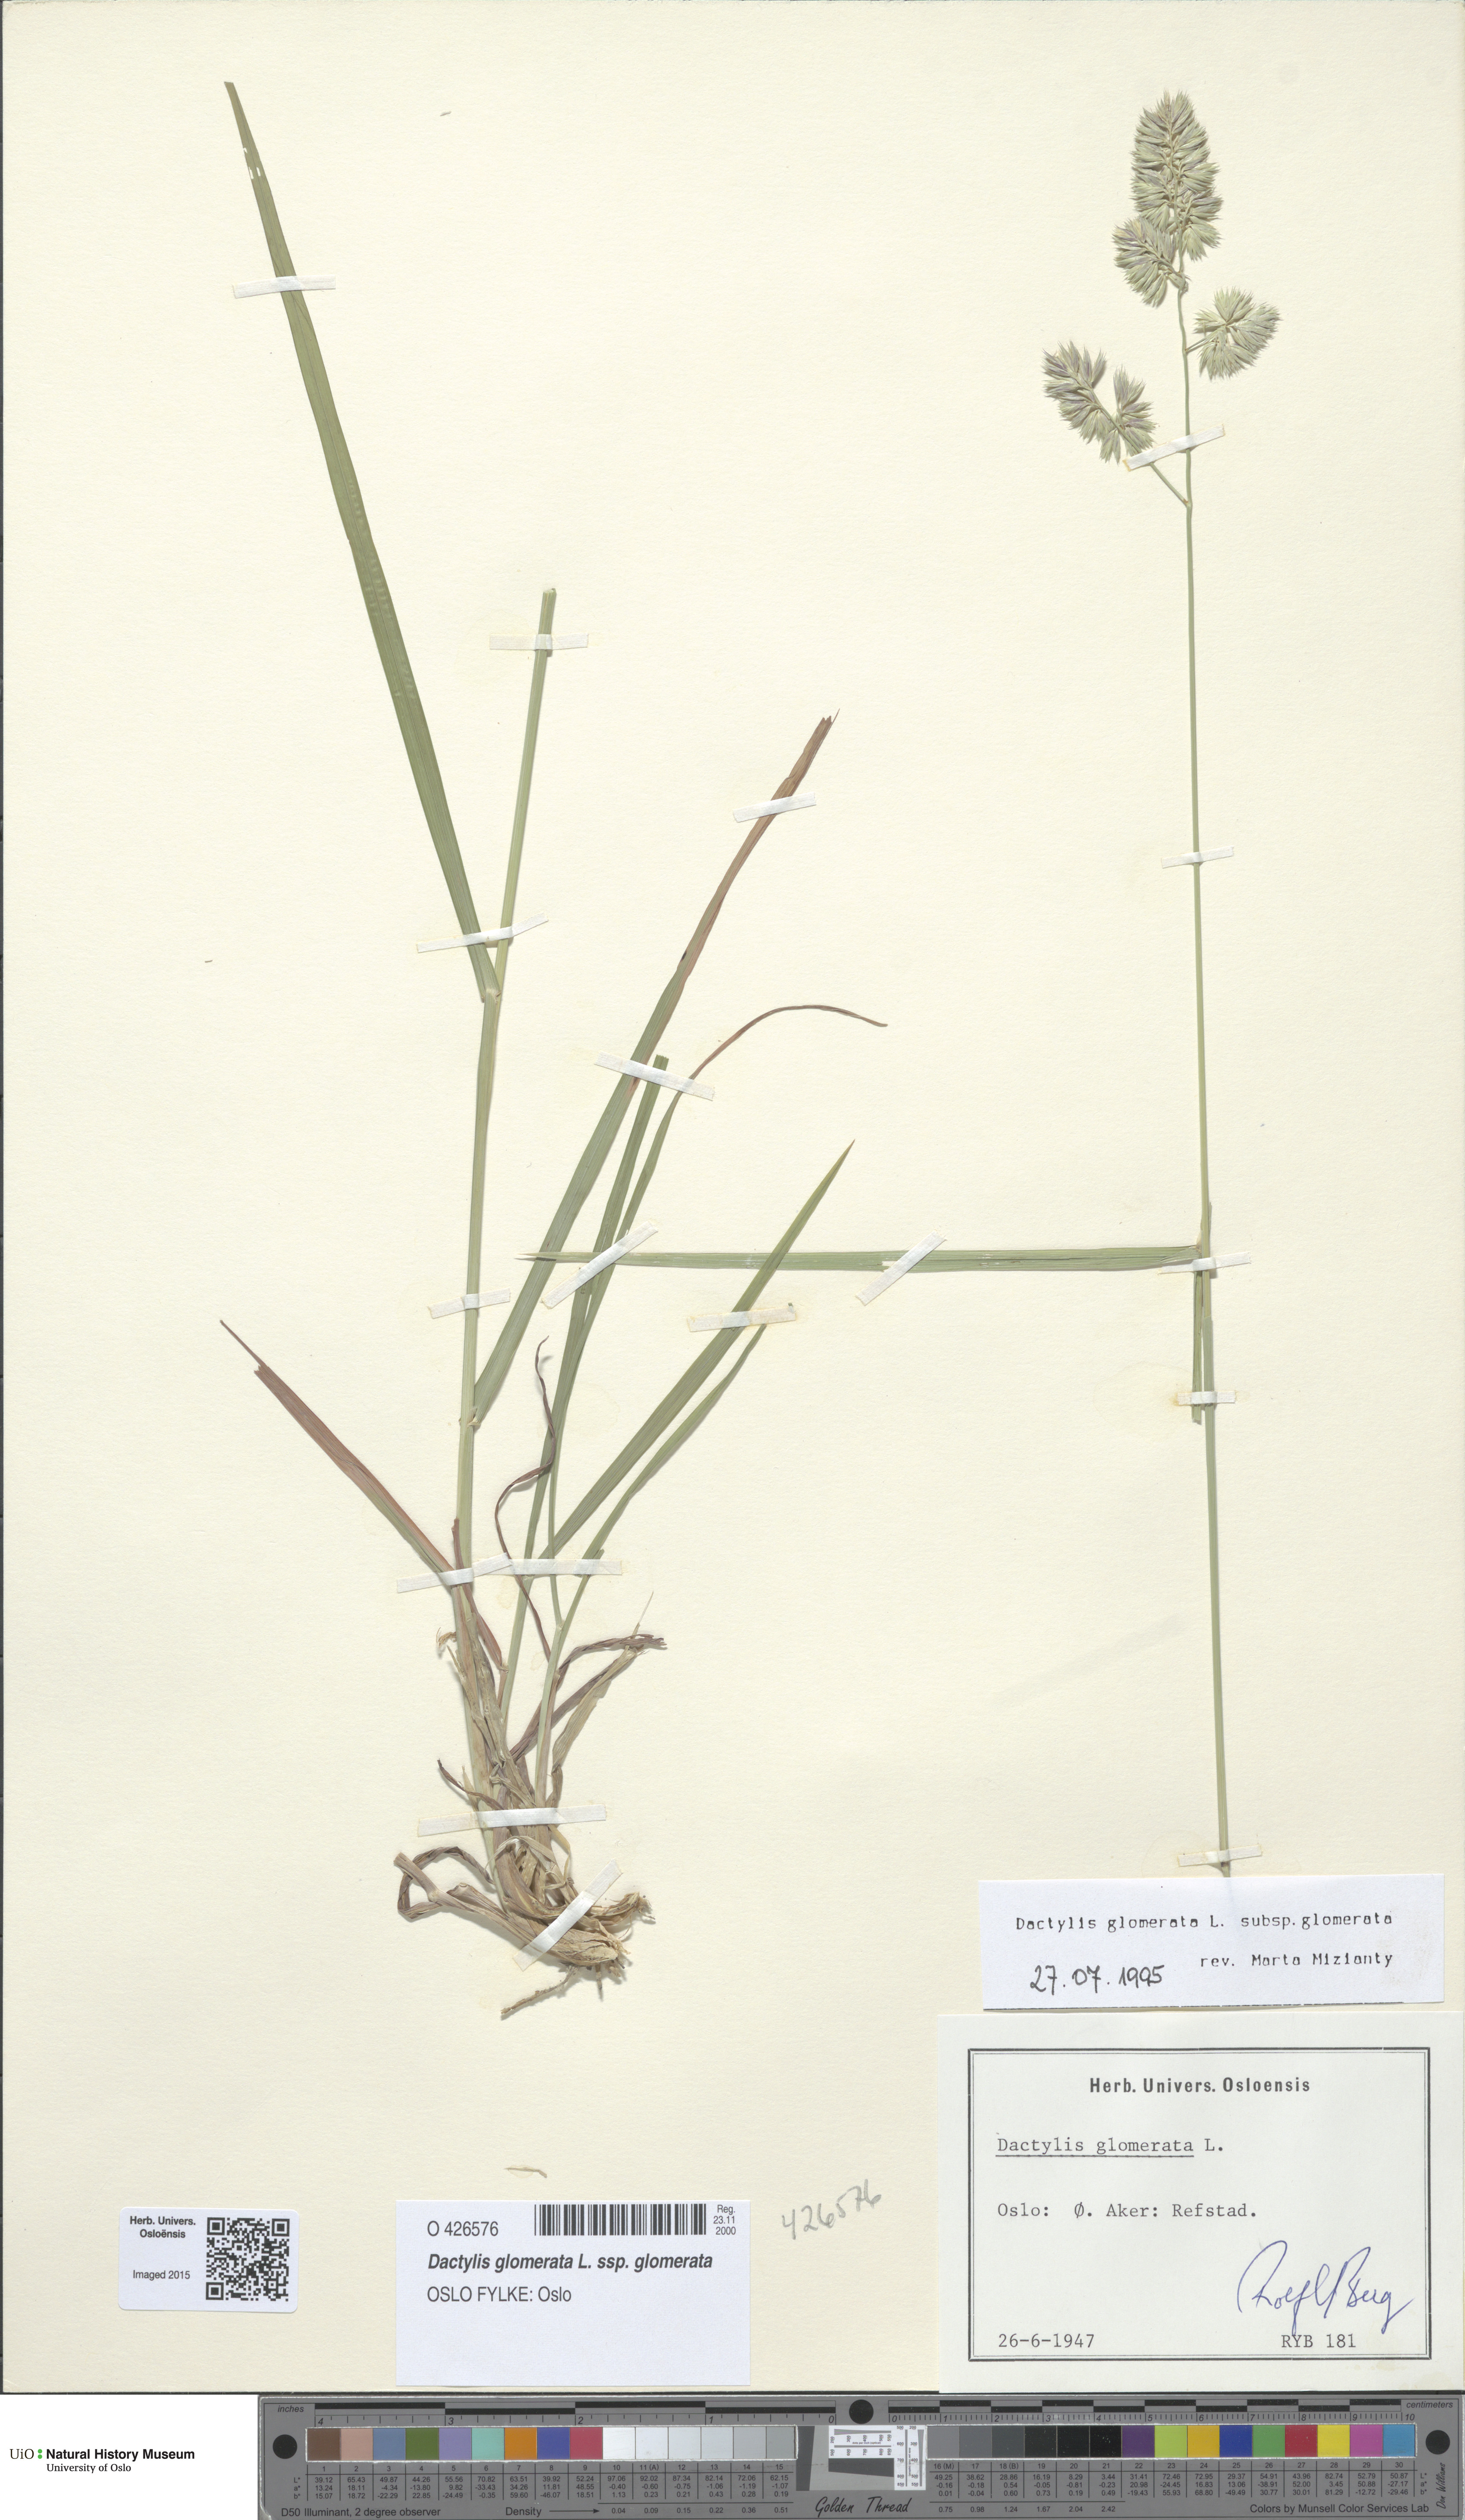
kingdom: Plantae
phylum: Tracheophyta
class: Liliopsida
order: Poales
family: Poaceae
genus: Dactylis
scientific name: Dactylis glomerata
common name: Orchardgrass
